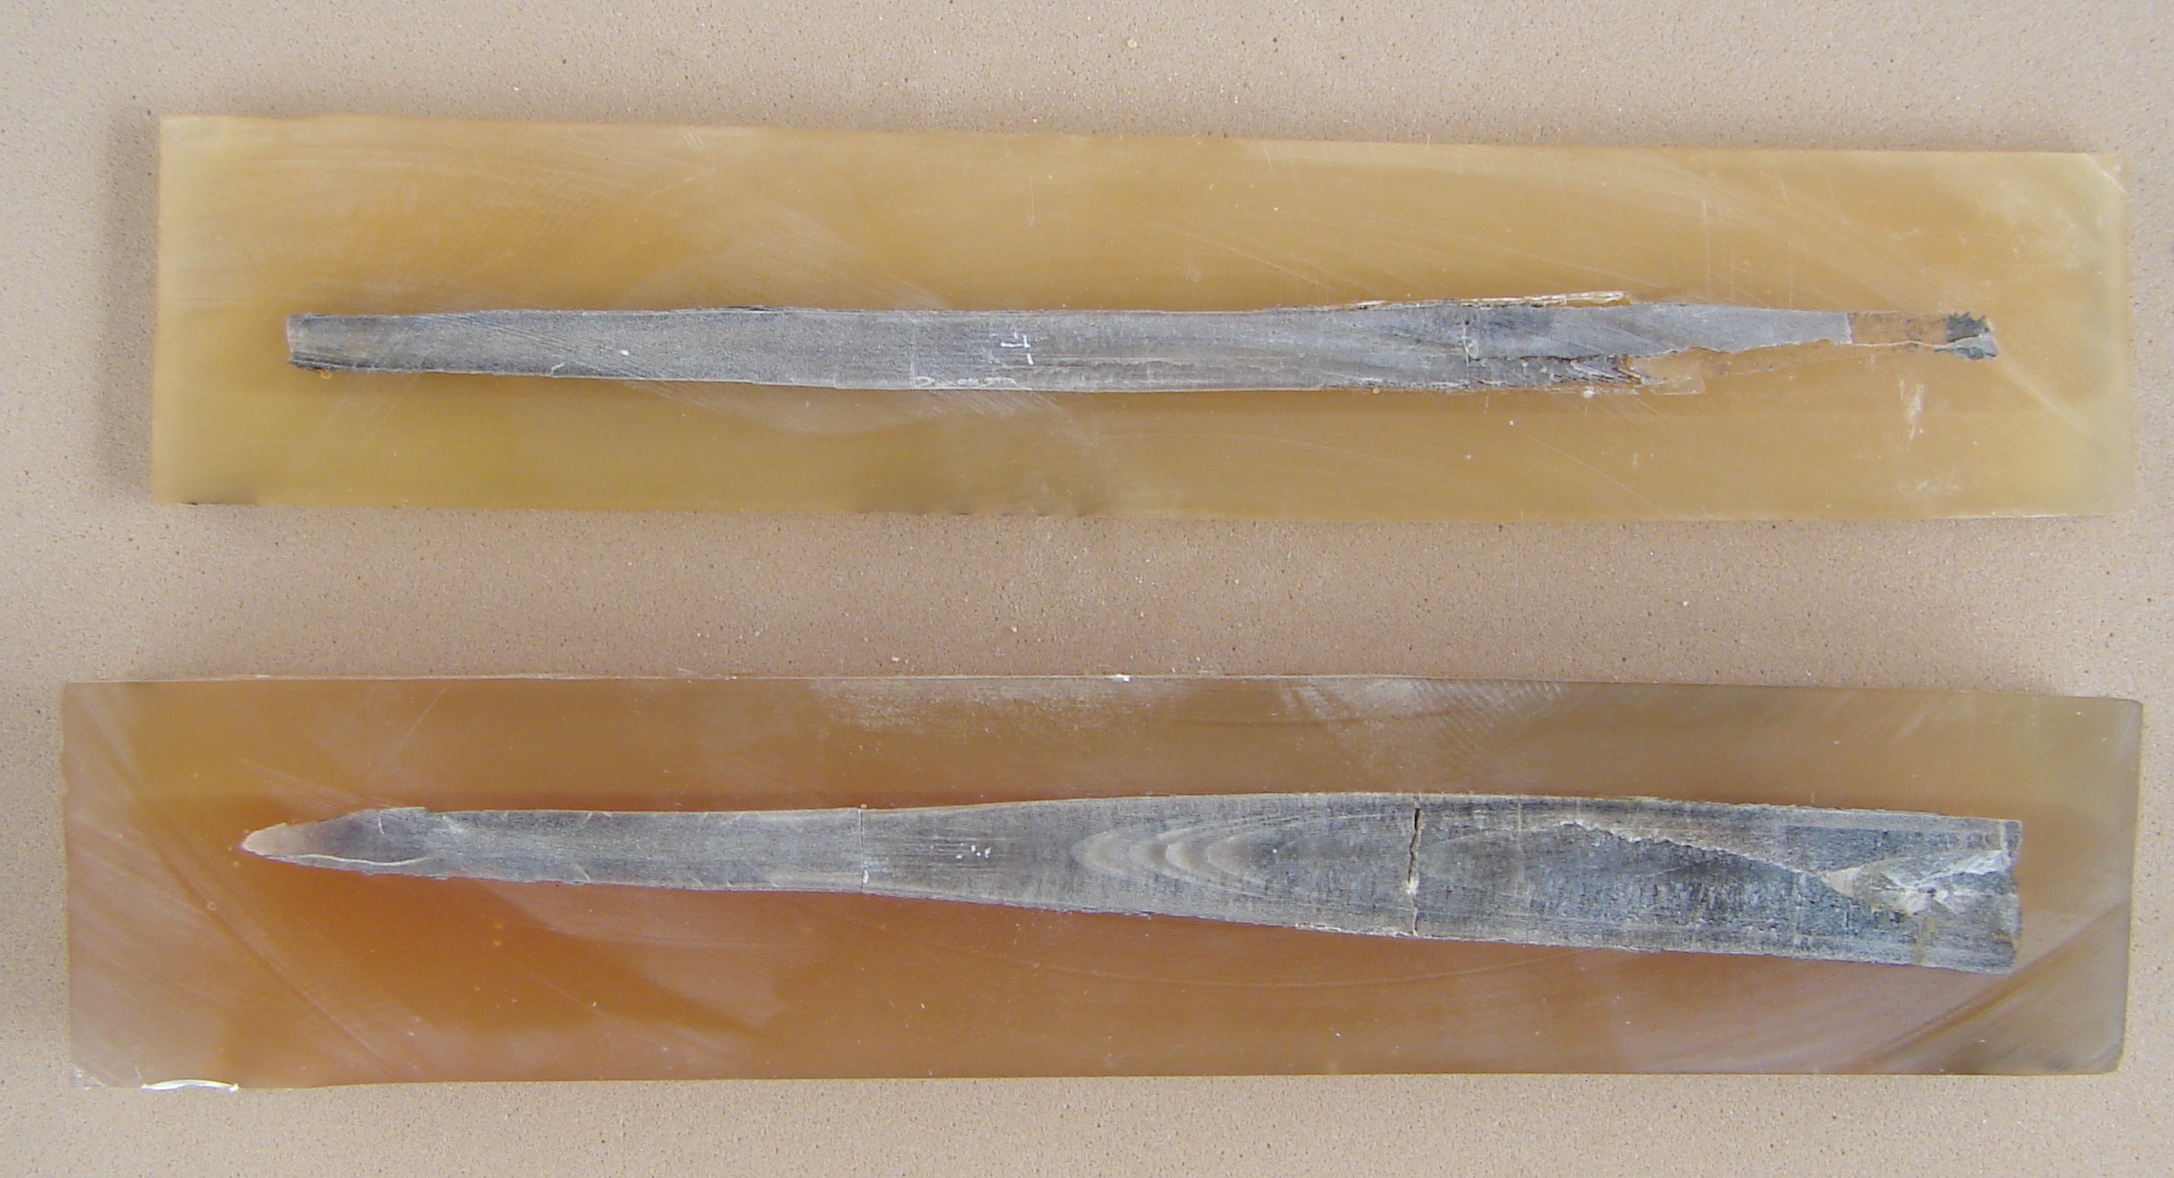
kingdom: Animalia
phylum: Mollusca
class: Cephalopoda
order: Belemnitida
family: Megateuthididae
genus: Dactyloteuthis
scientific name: Dactyloteuthis semistriata
